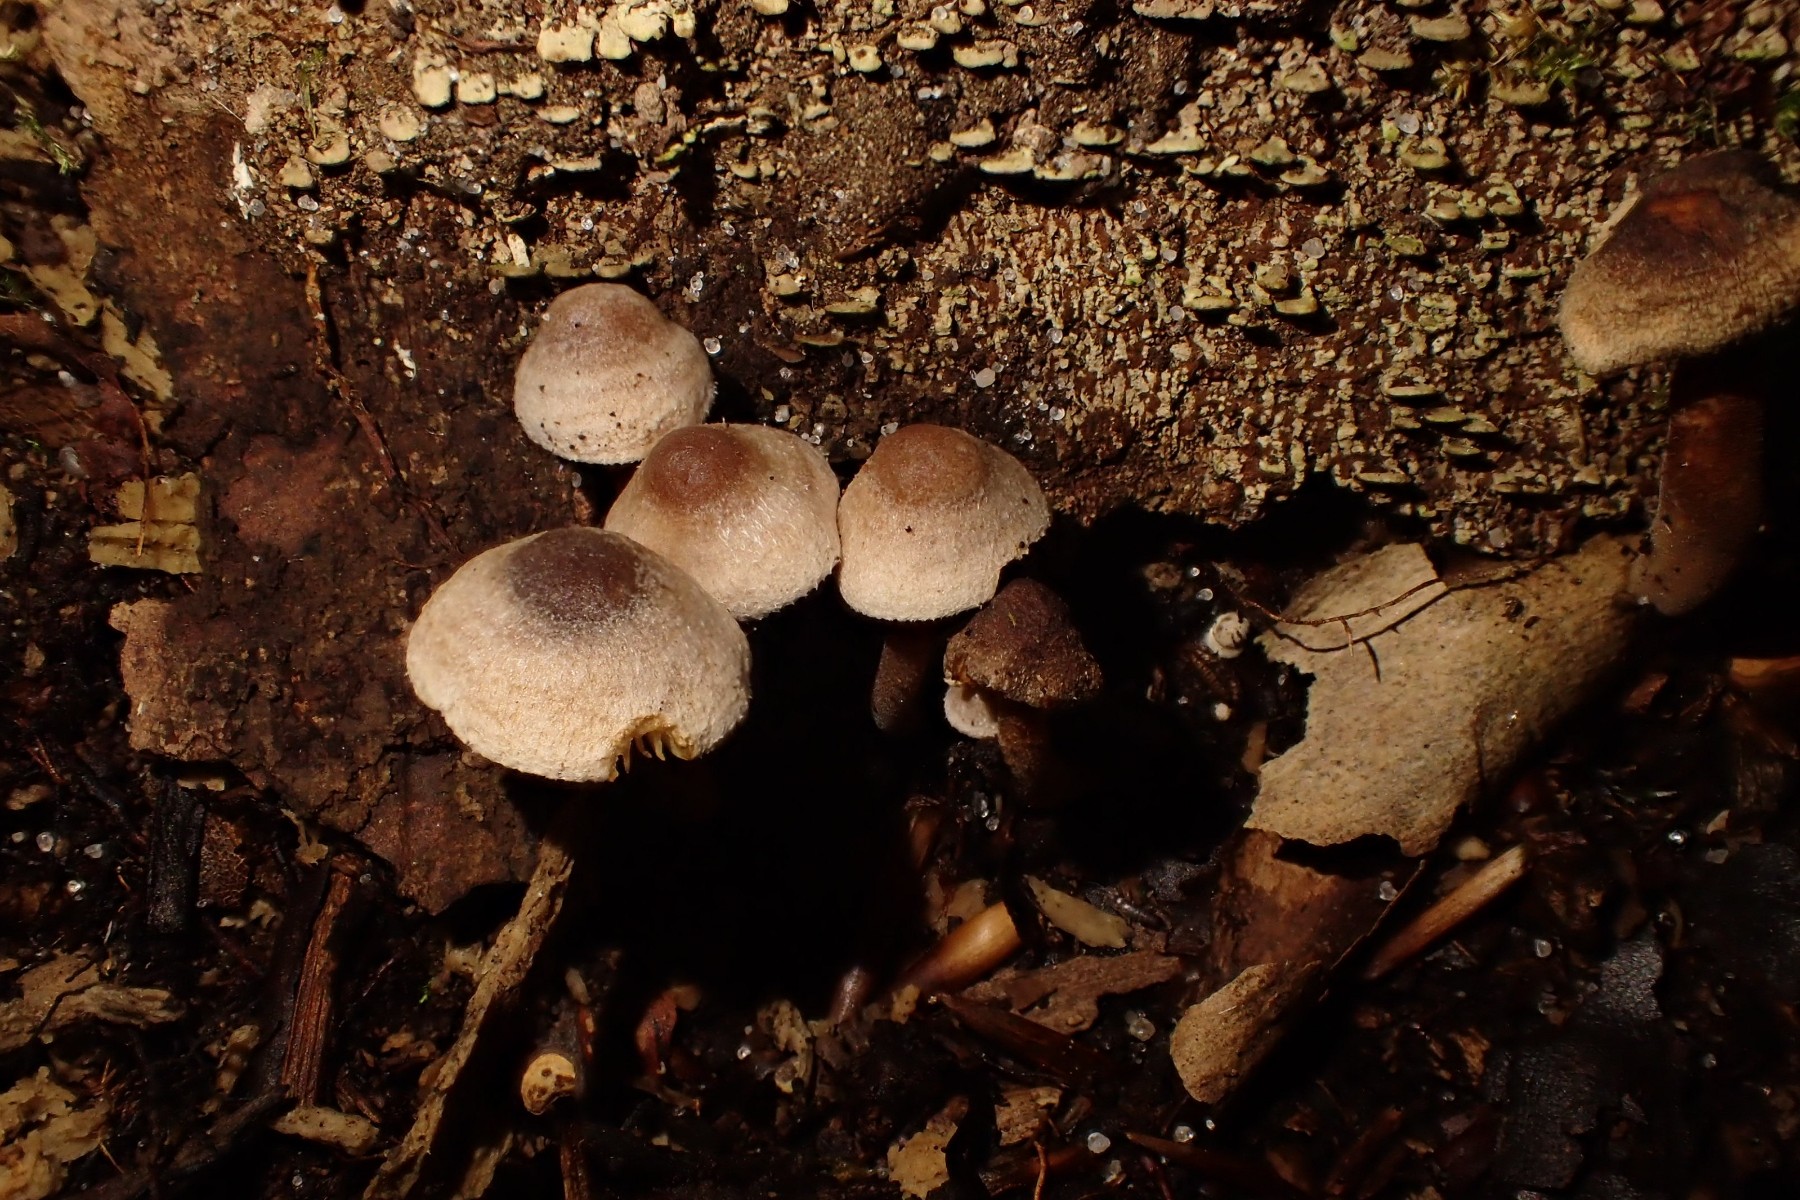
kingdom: Fungi
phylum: Basidiomycota
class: Agaricomycetes
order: Agaricales
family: Inocybaceae
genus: Inocybe
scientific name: Inocybe petiginosa
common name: liden trævlhat
